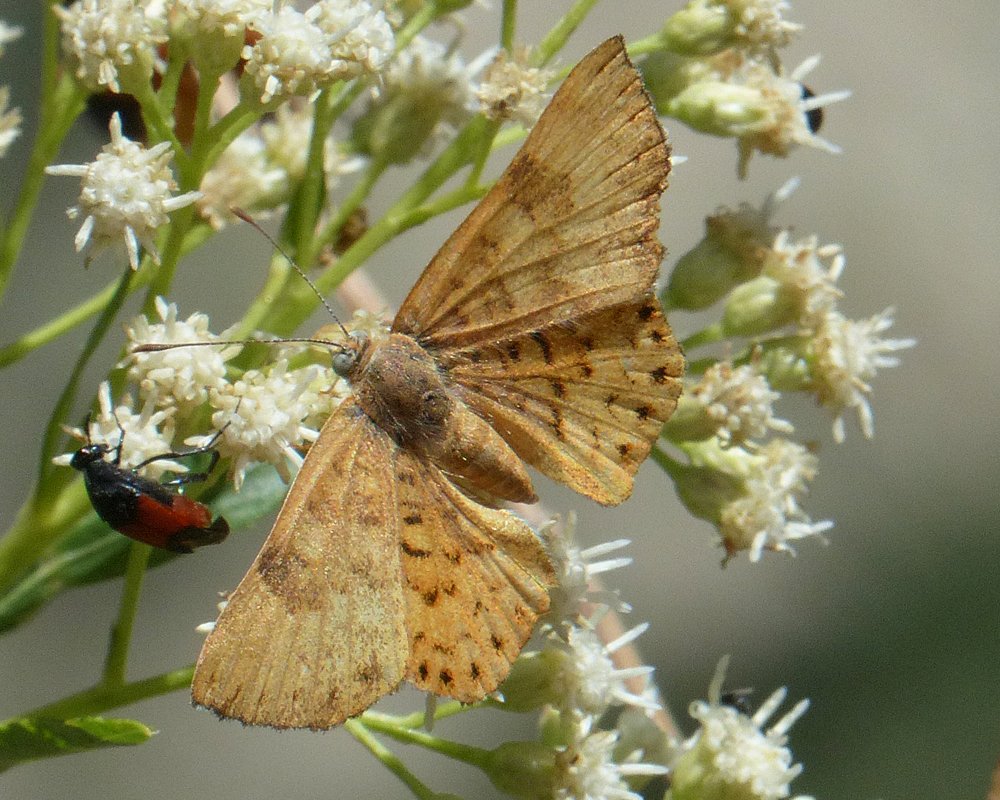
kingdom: Animalia
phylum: Arthropoda
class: Insecta
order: Lepidoptera
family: Lycaenidae
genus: Emesis
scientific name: Emesis zela
